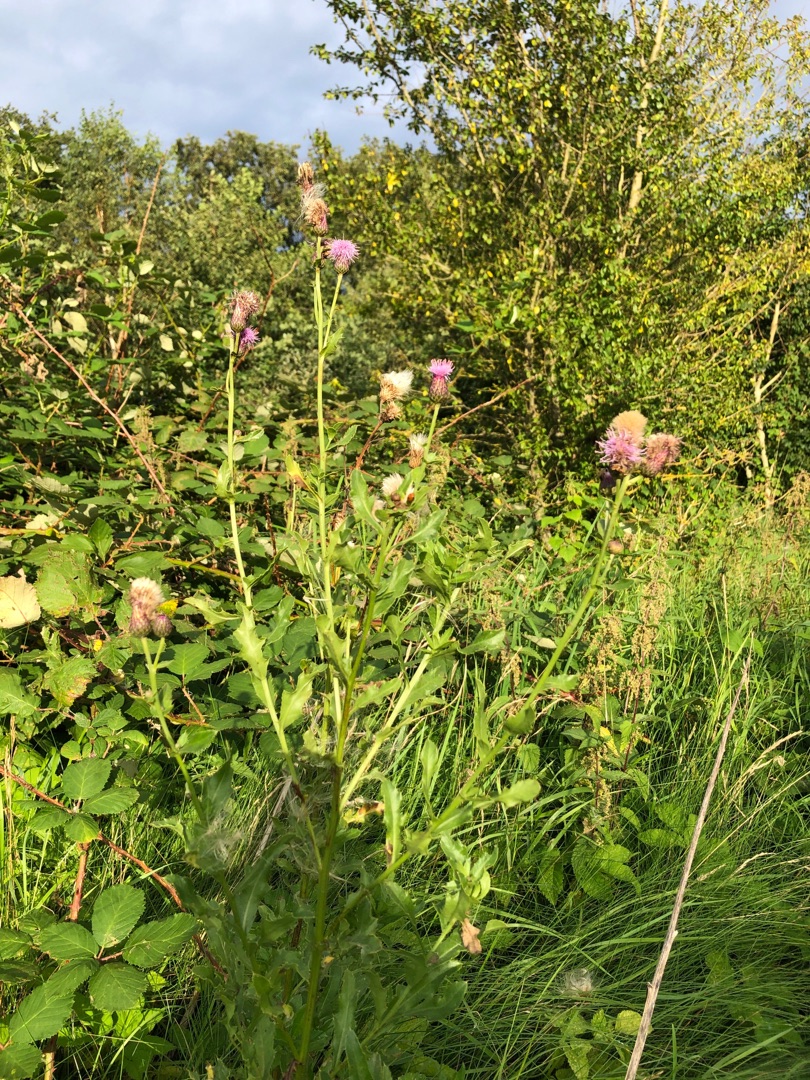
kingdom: Plantae
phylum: Tracheophyta
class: Magnoliopsida
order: Asterales
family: Asteraceae
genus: Cirsium
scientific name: Cirsium arvense
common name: Ager-tidsel
